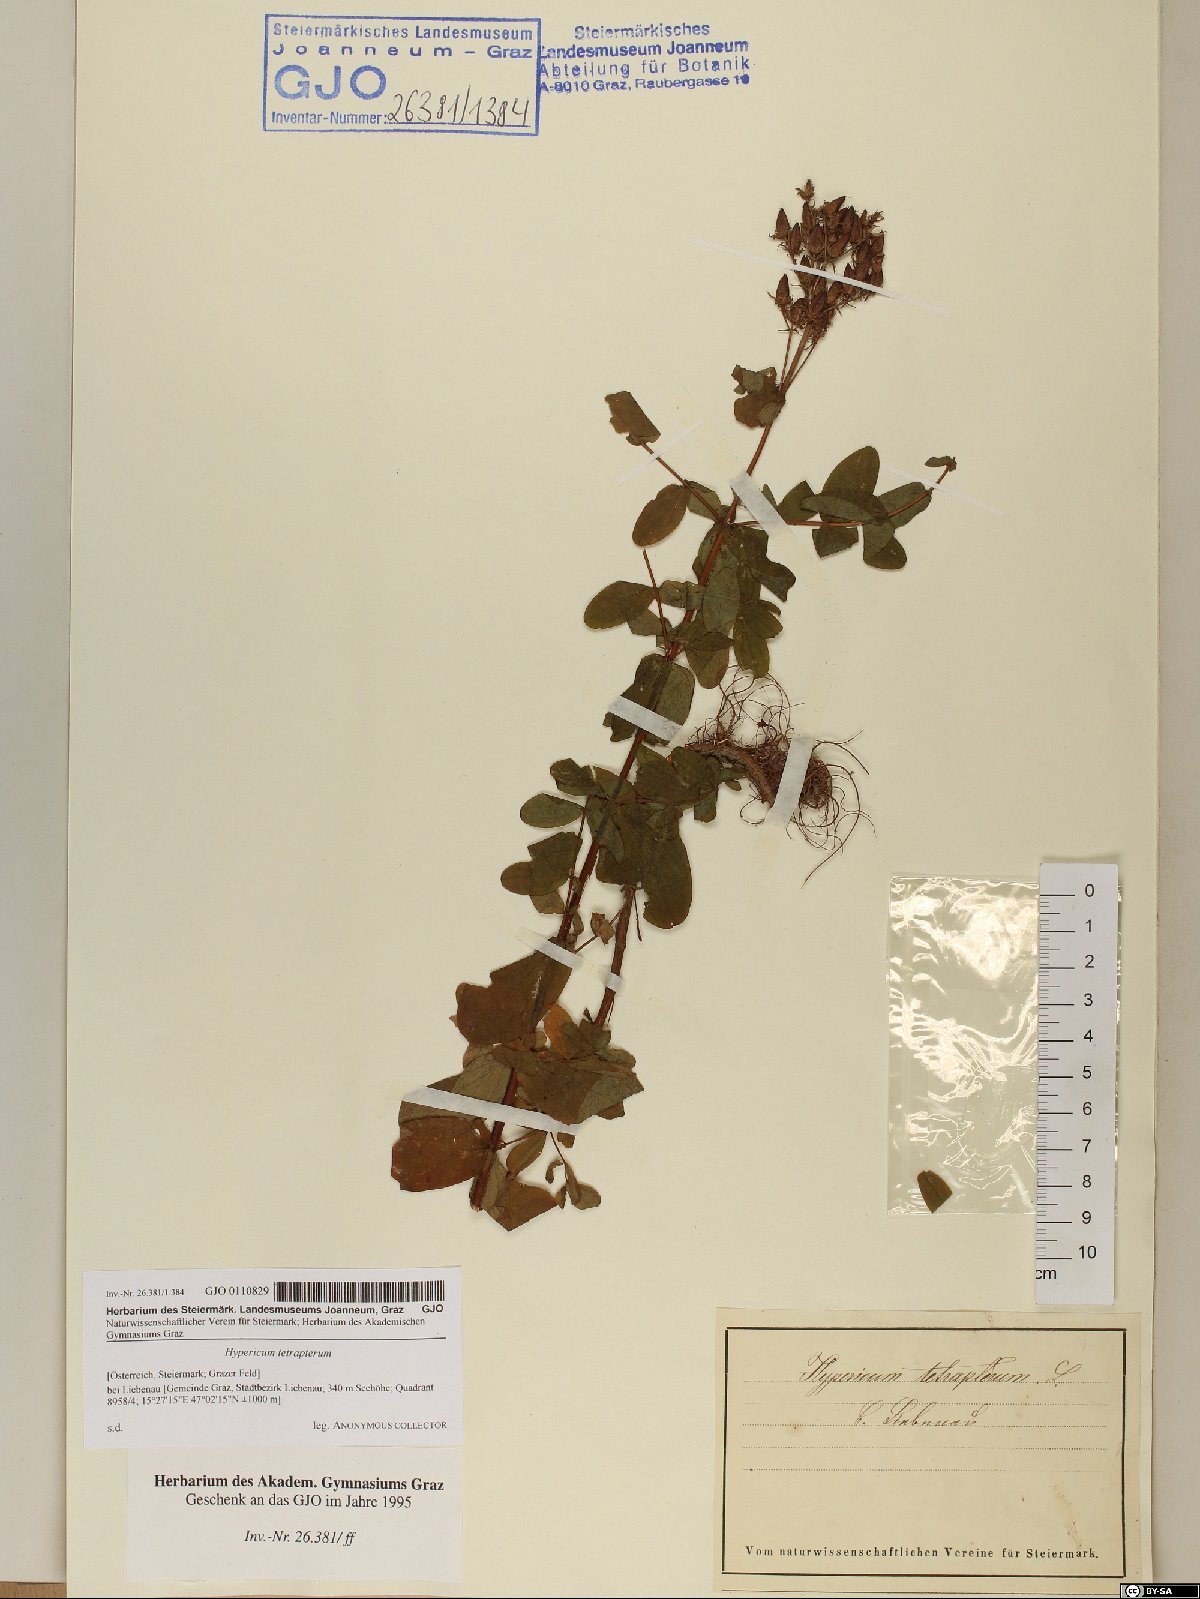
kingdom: Plantae
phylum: Tracheophyta
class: Magnoliopsida
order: Malpighiales
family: Hypericaceae
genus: Hypericum
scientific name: Hypericum tetrapterum
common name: Square-stalked st. john's-wort
